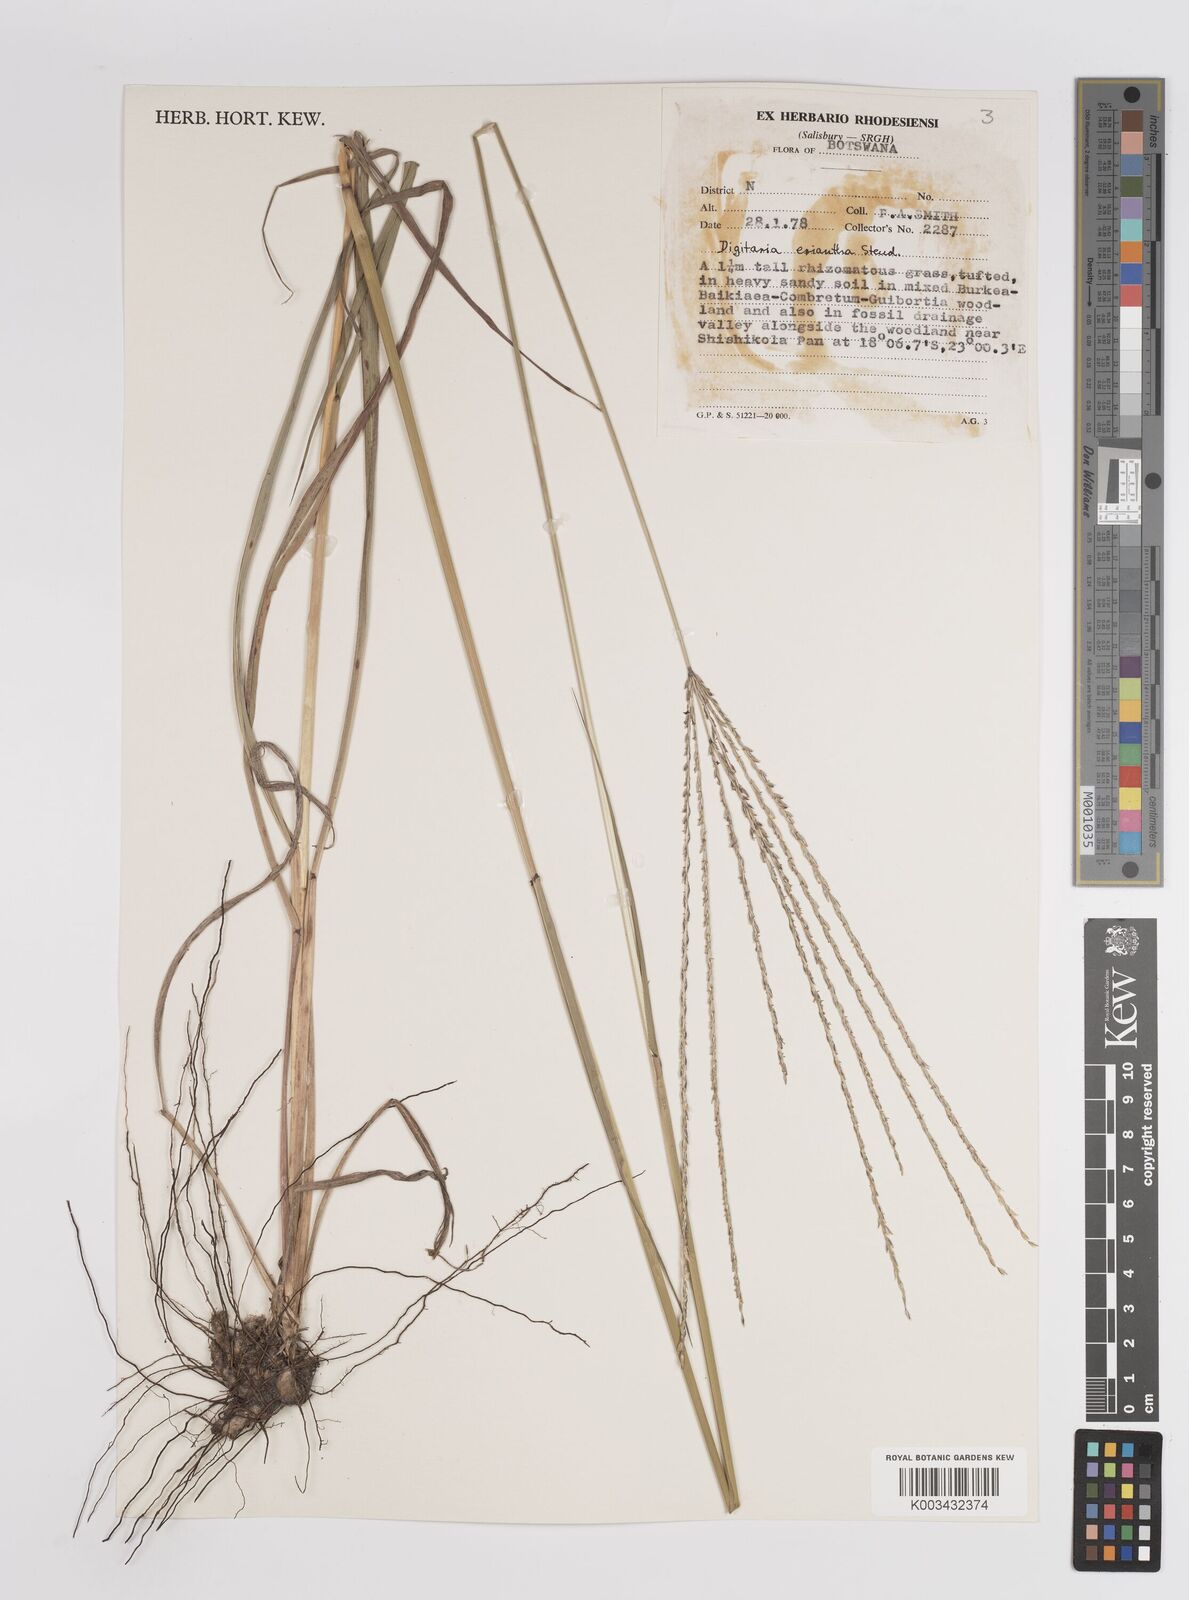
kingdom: Plantae
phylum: Tracheophyta
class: Liliopsida
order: Poales
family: Poaceae
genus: Digitaria
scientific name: Digitaria eriantha
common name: Digitgrass
